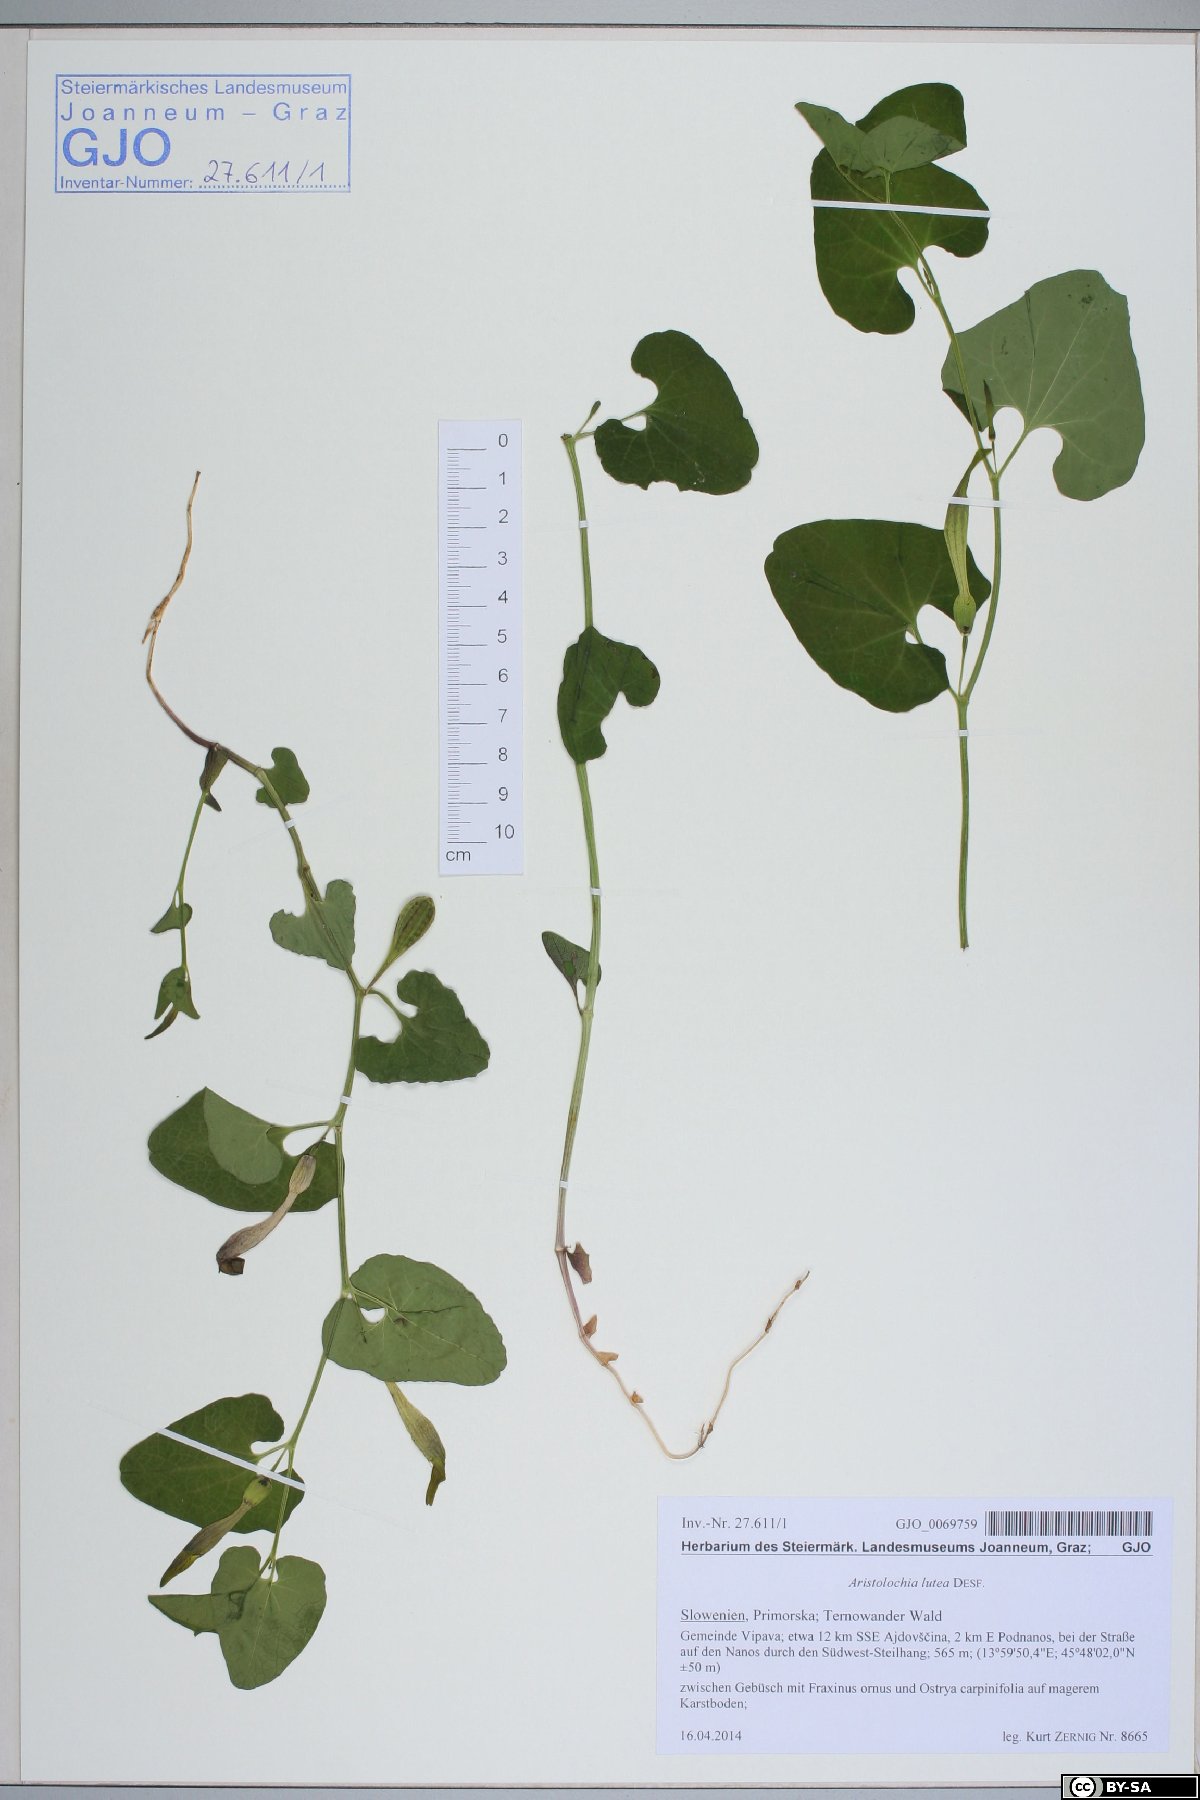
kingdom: Plantae
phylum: Tracheophyta
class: Magnoliopsida
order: Piperales
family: Aristolochiaceae
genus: Aristolochia
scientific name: Aristolochia lutea
